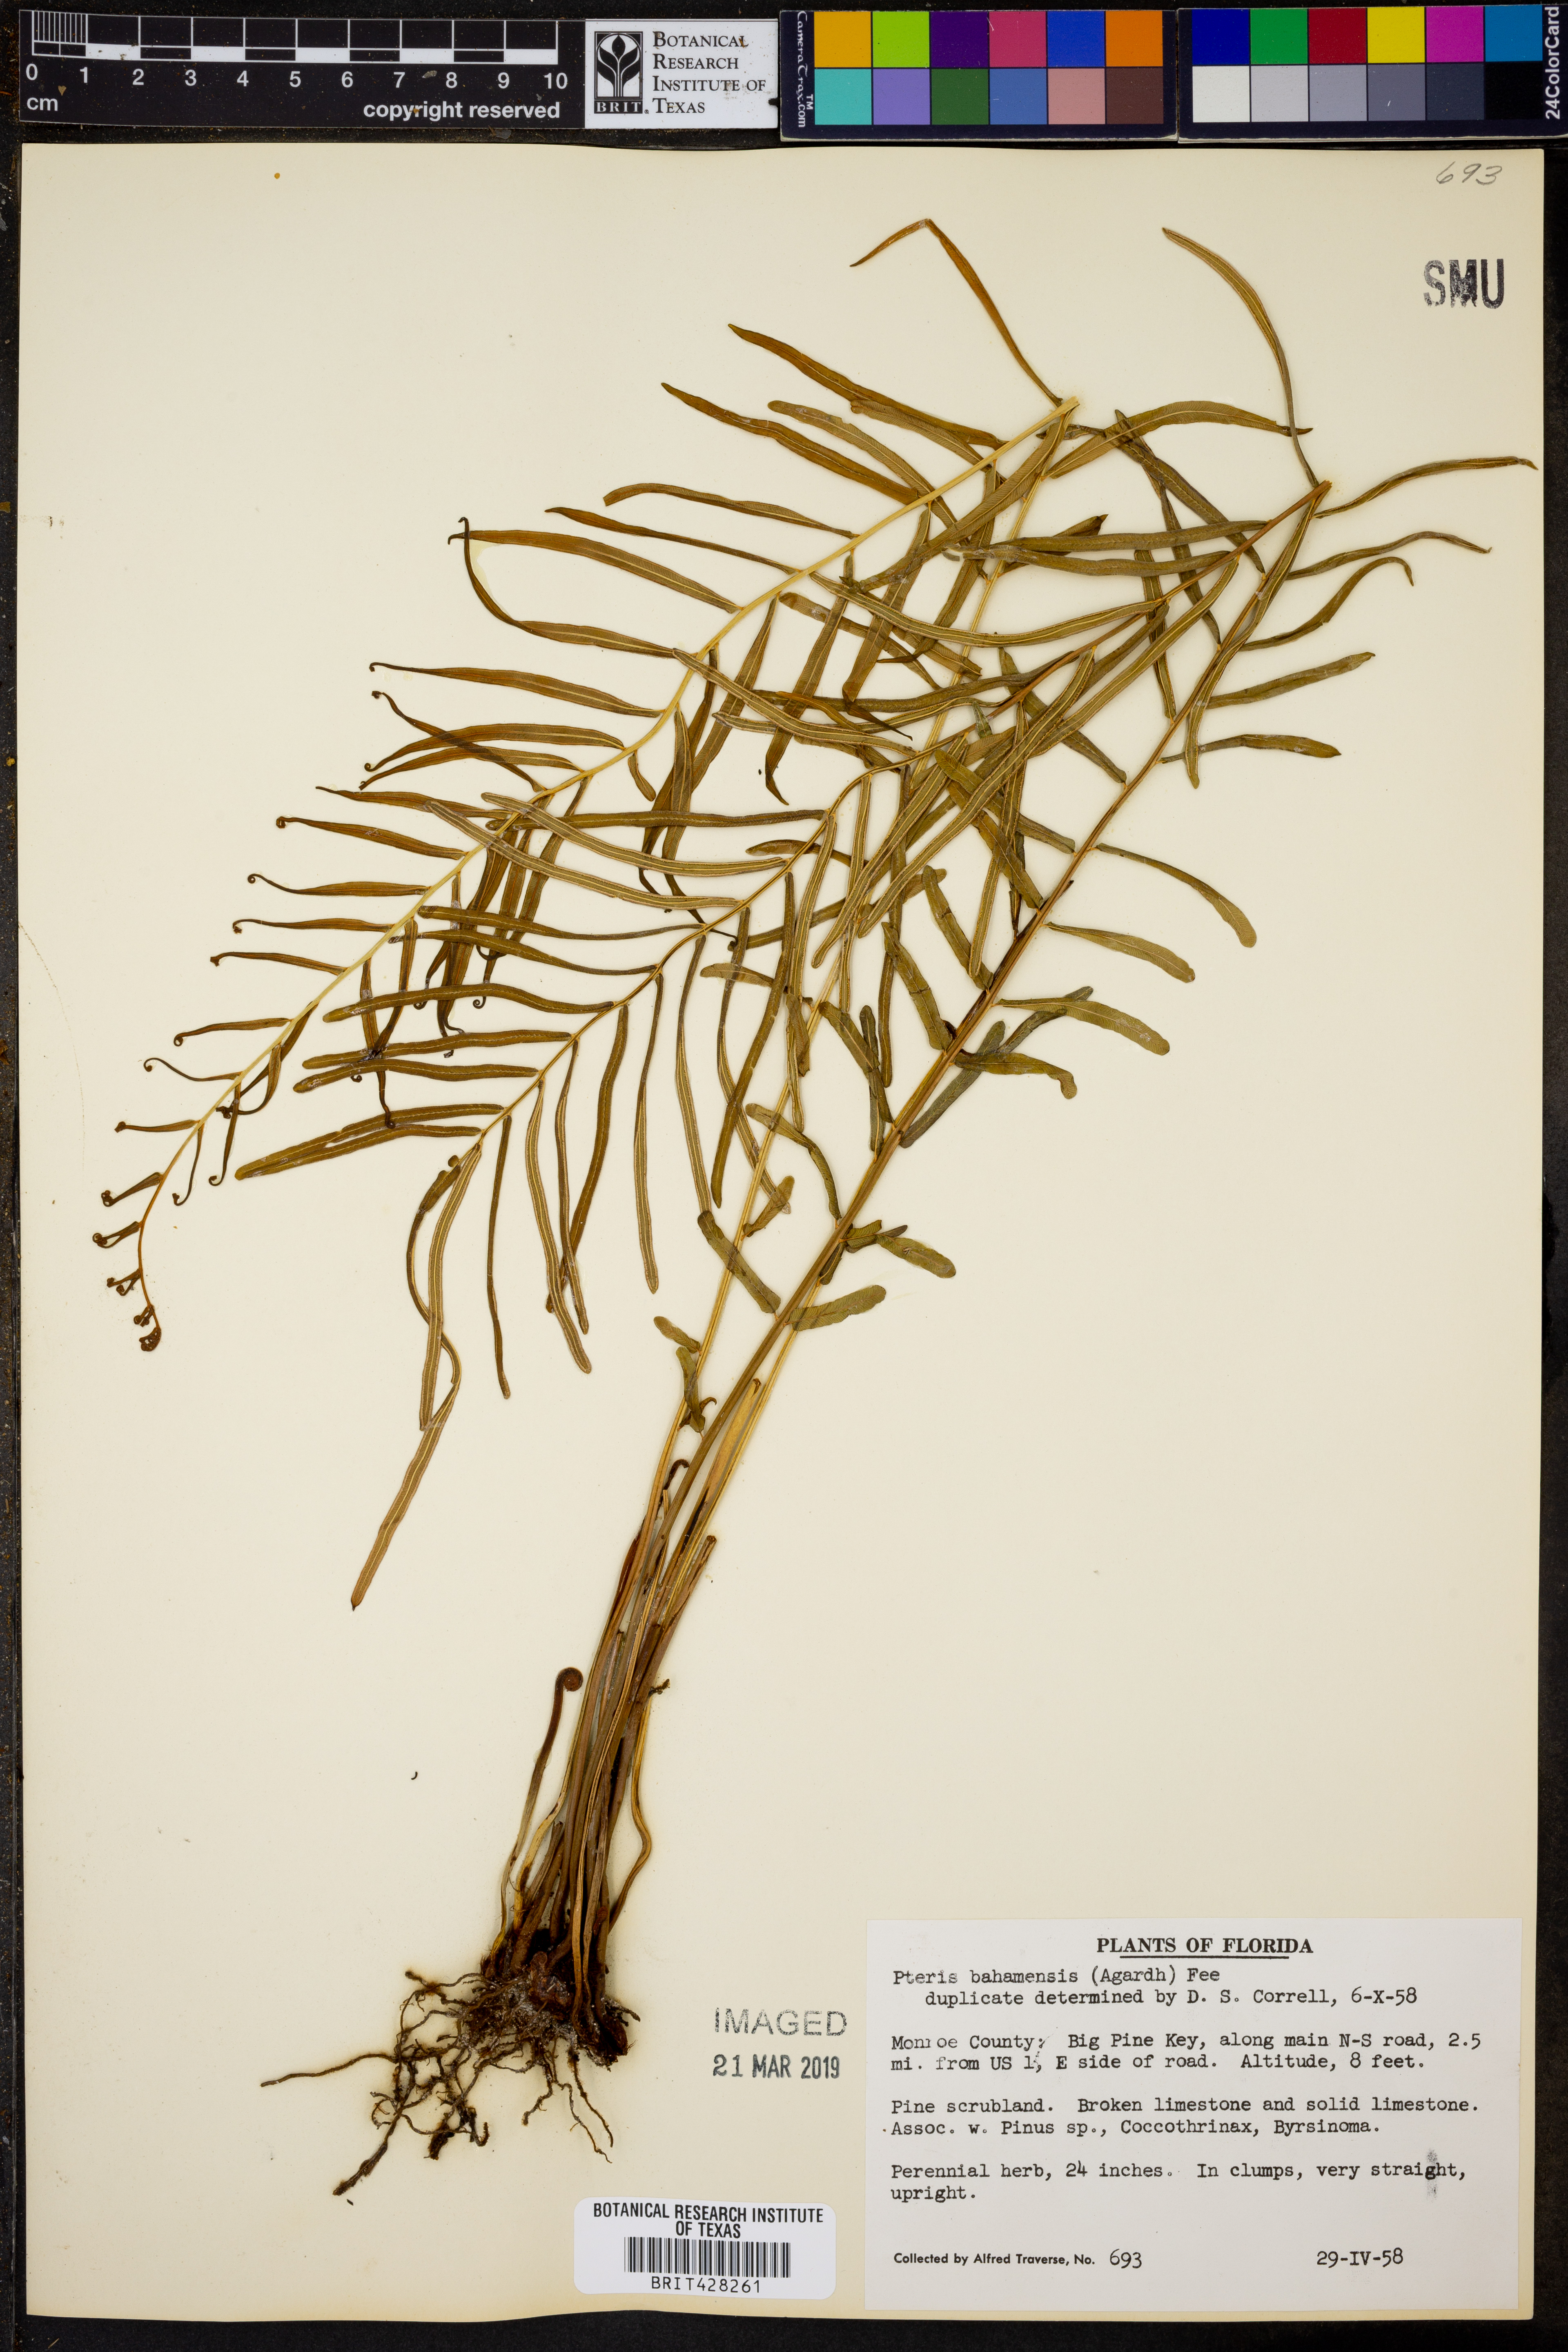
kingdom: Plantae
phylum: Tracheophyta
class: Polypodiopsida
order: Polypodiales
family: Pteridaceae
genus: Pteris
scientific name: Pteris bahamensis
